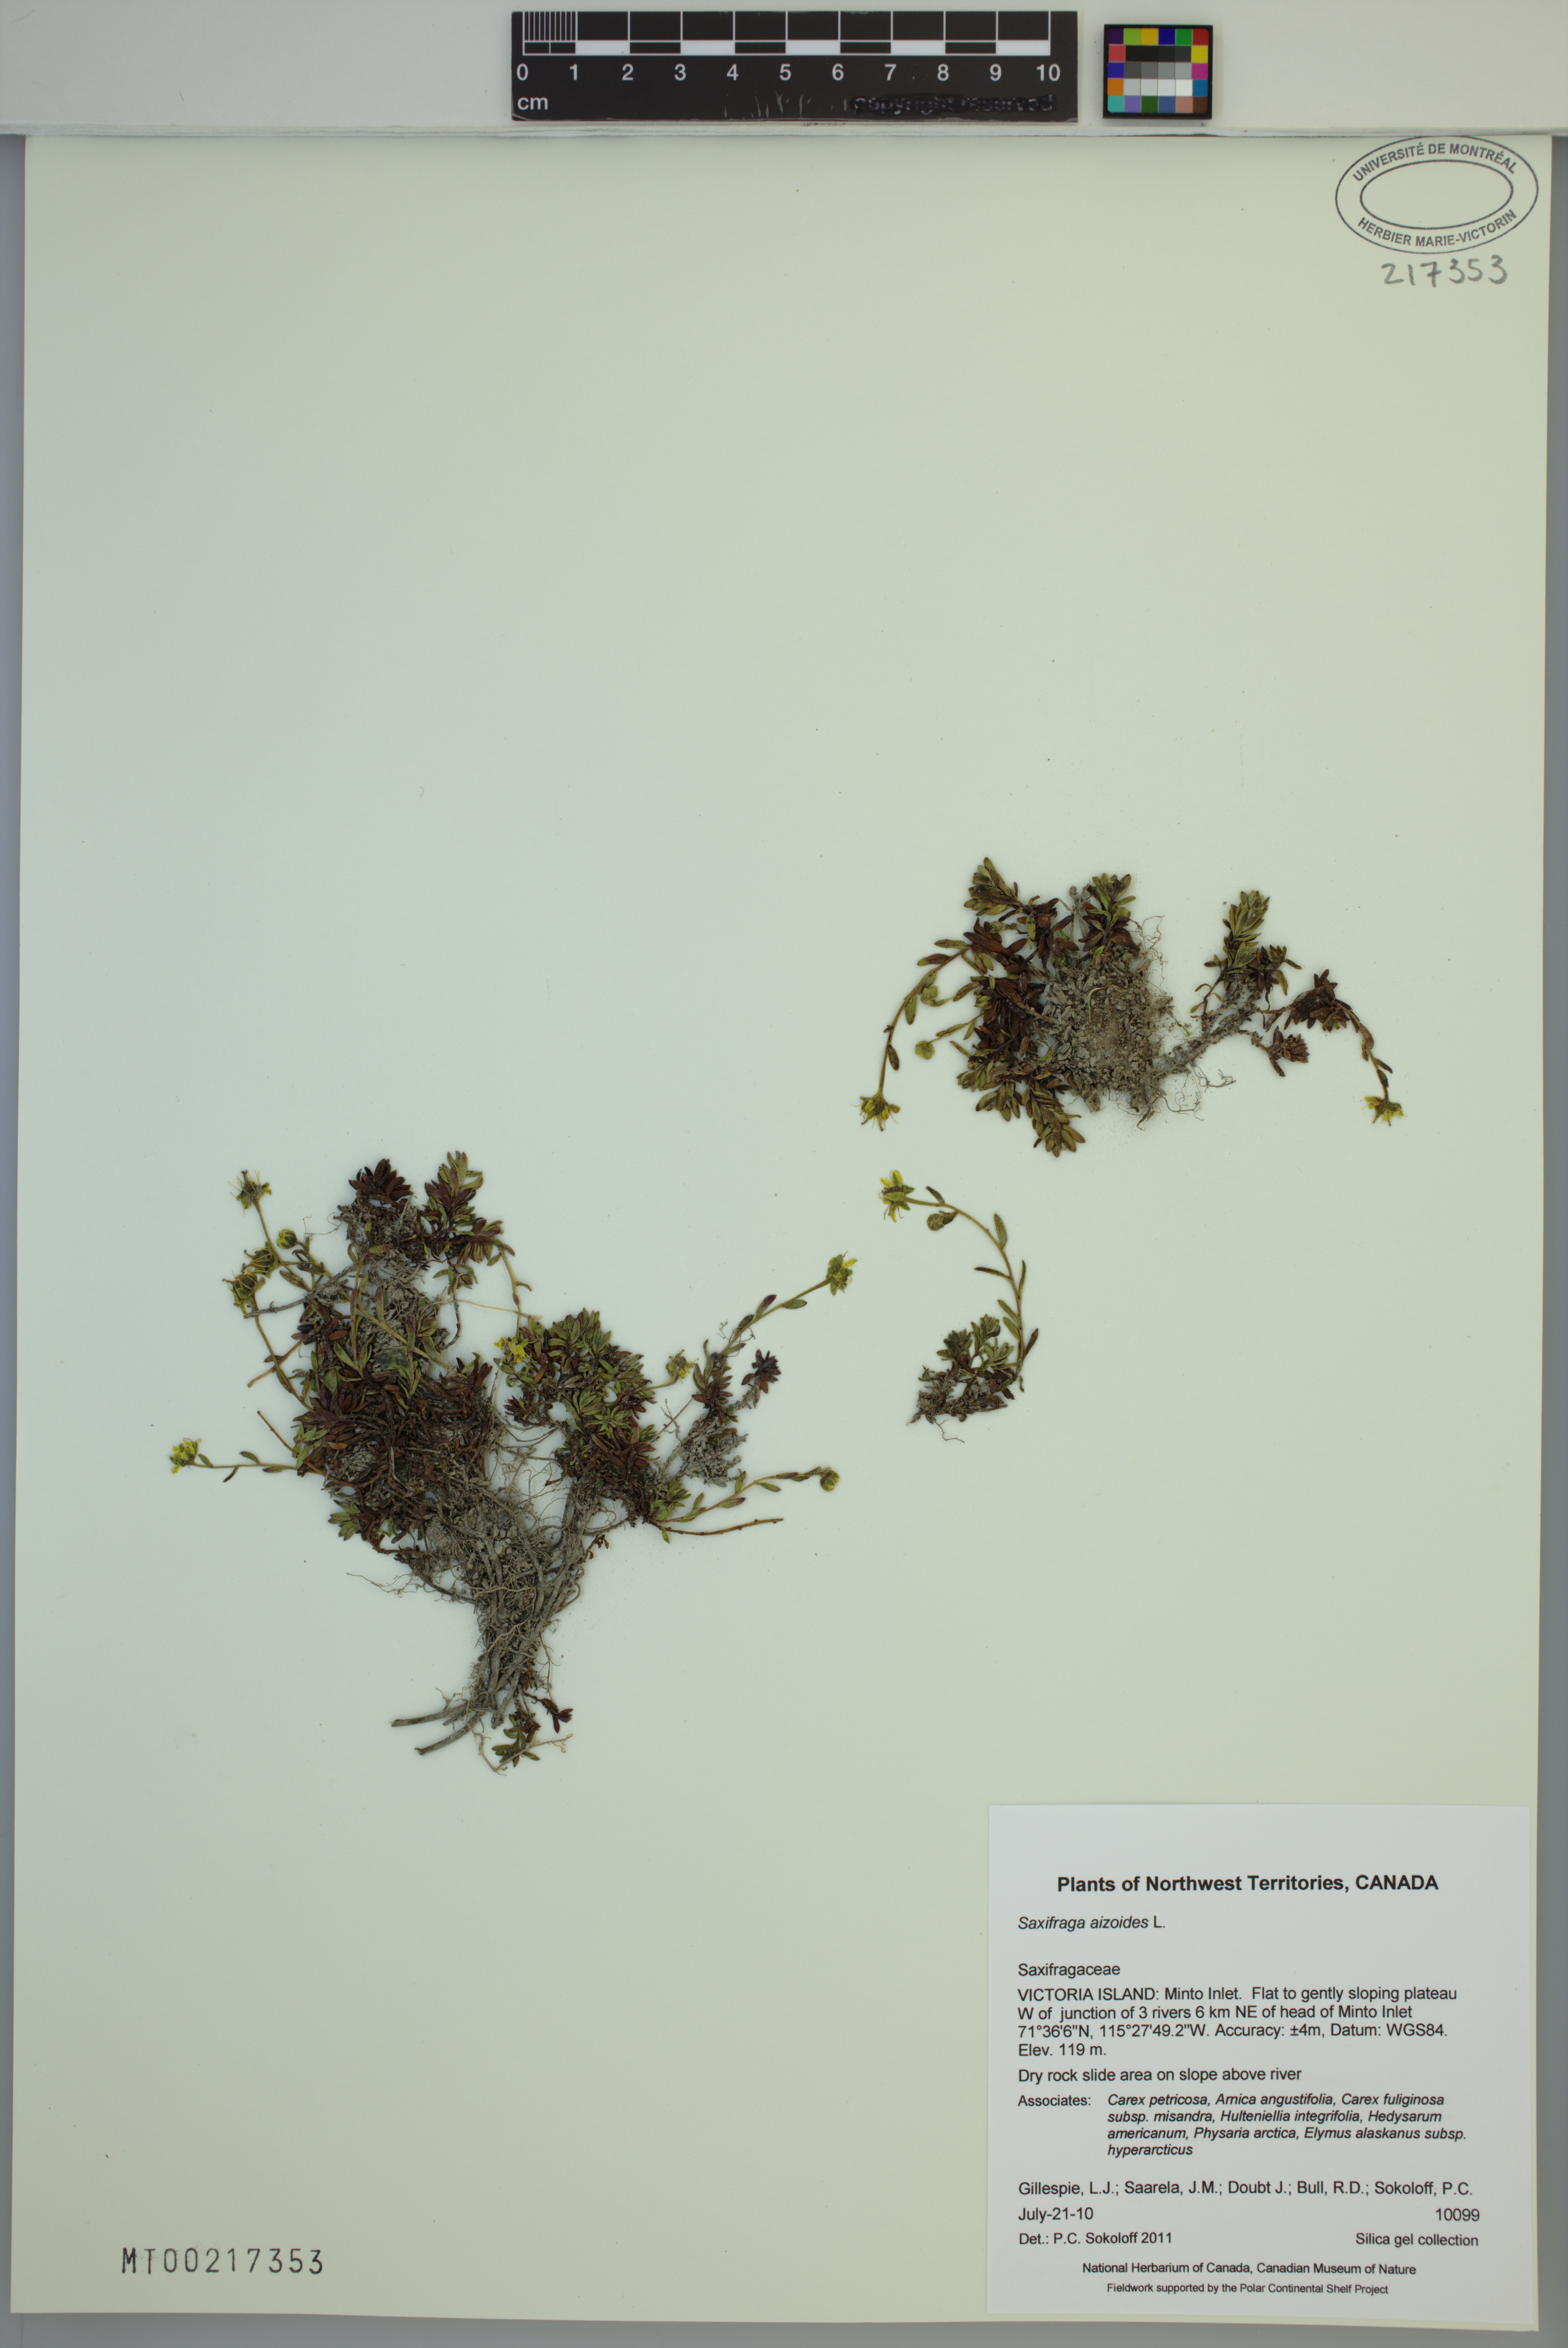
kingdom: Plantae
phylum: Tracheophyta
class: Magnoliopsida
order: Saxifragales
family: Saxifragaceae
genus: Saxifraga
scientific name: Saxifraga aizoides
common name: Yellow mountain saxifrage
